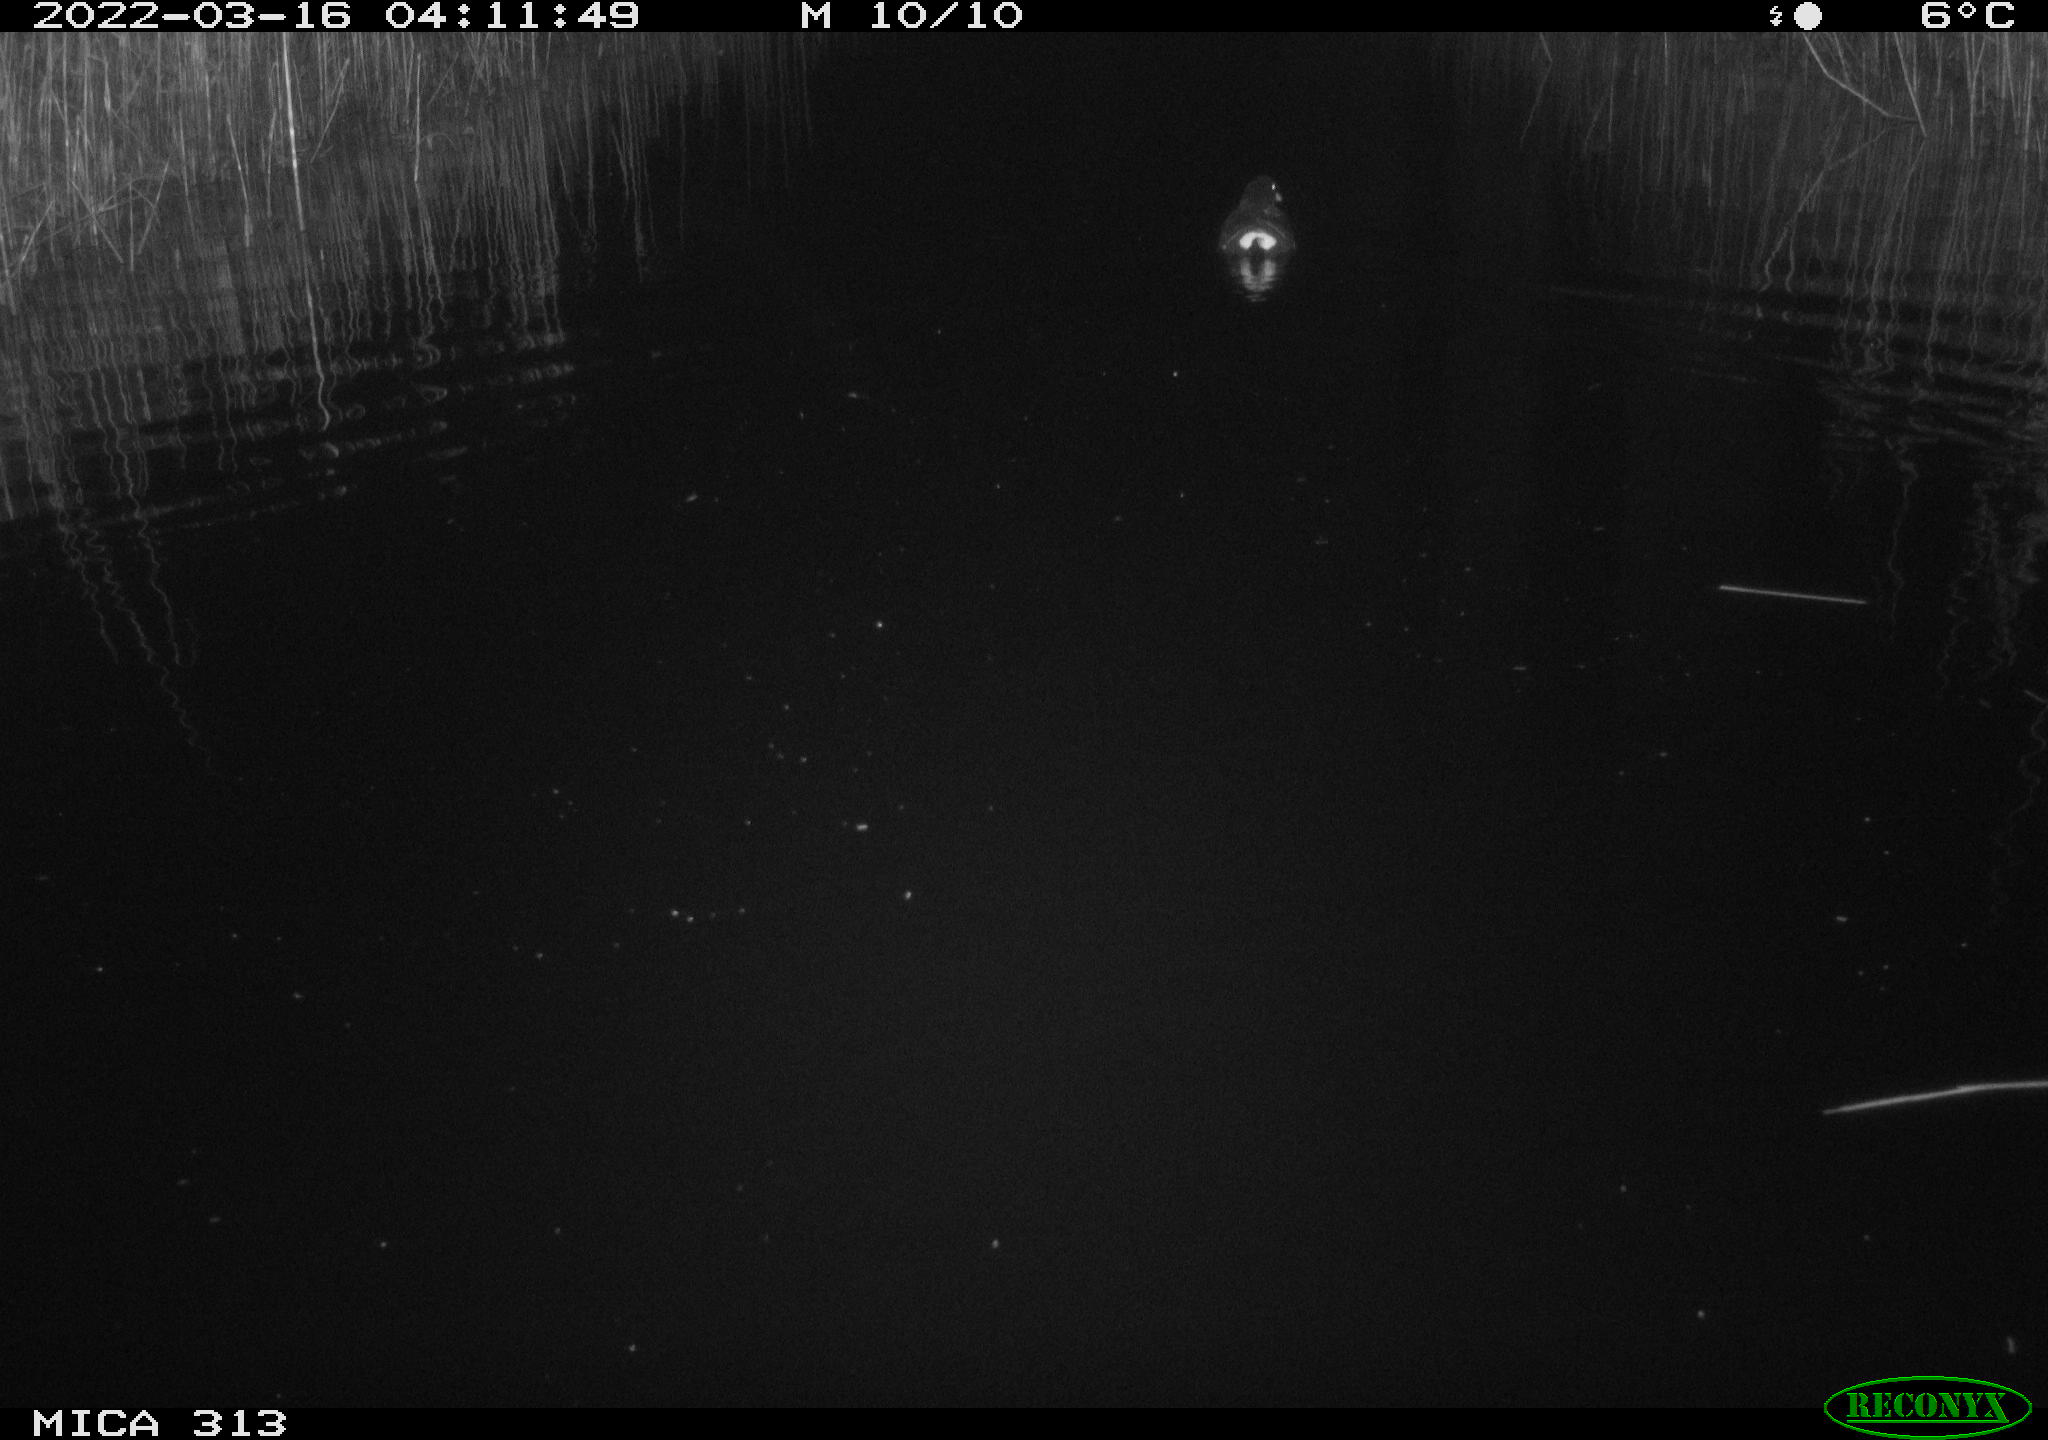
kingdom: Animalia
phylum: Chordata
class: Aves
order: Gruiformes
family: Rallidae
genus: Gallinula
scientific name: Gallinula chloropus
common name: Common moorhen
